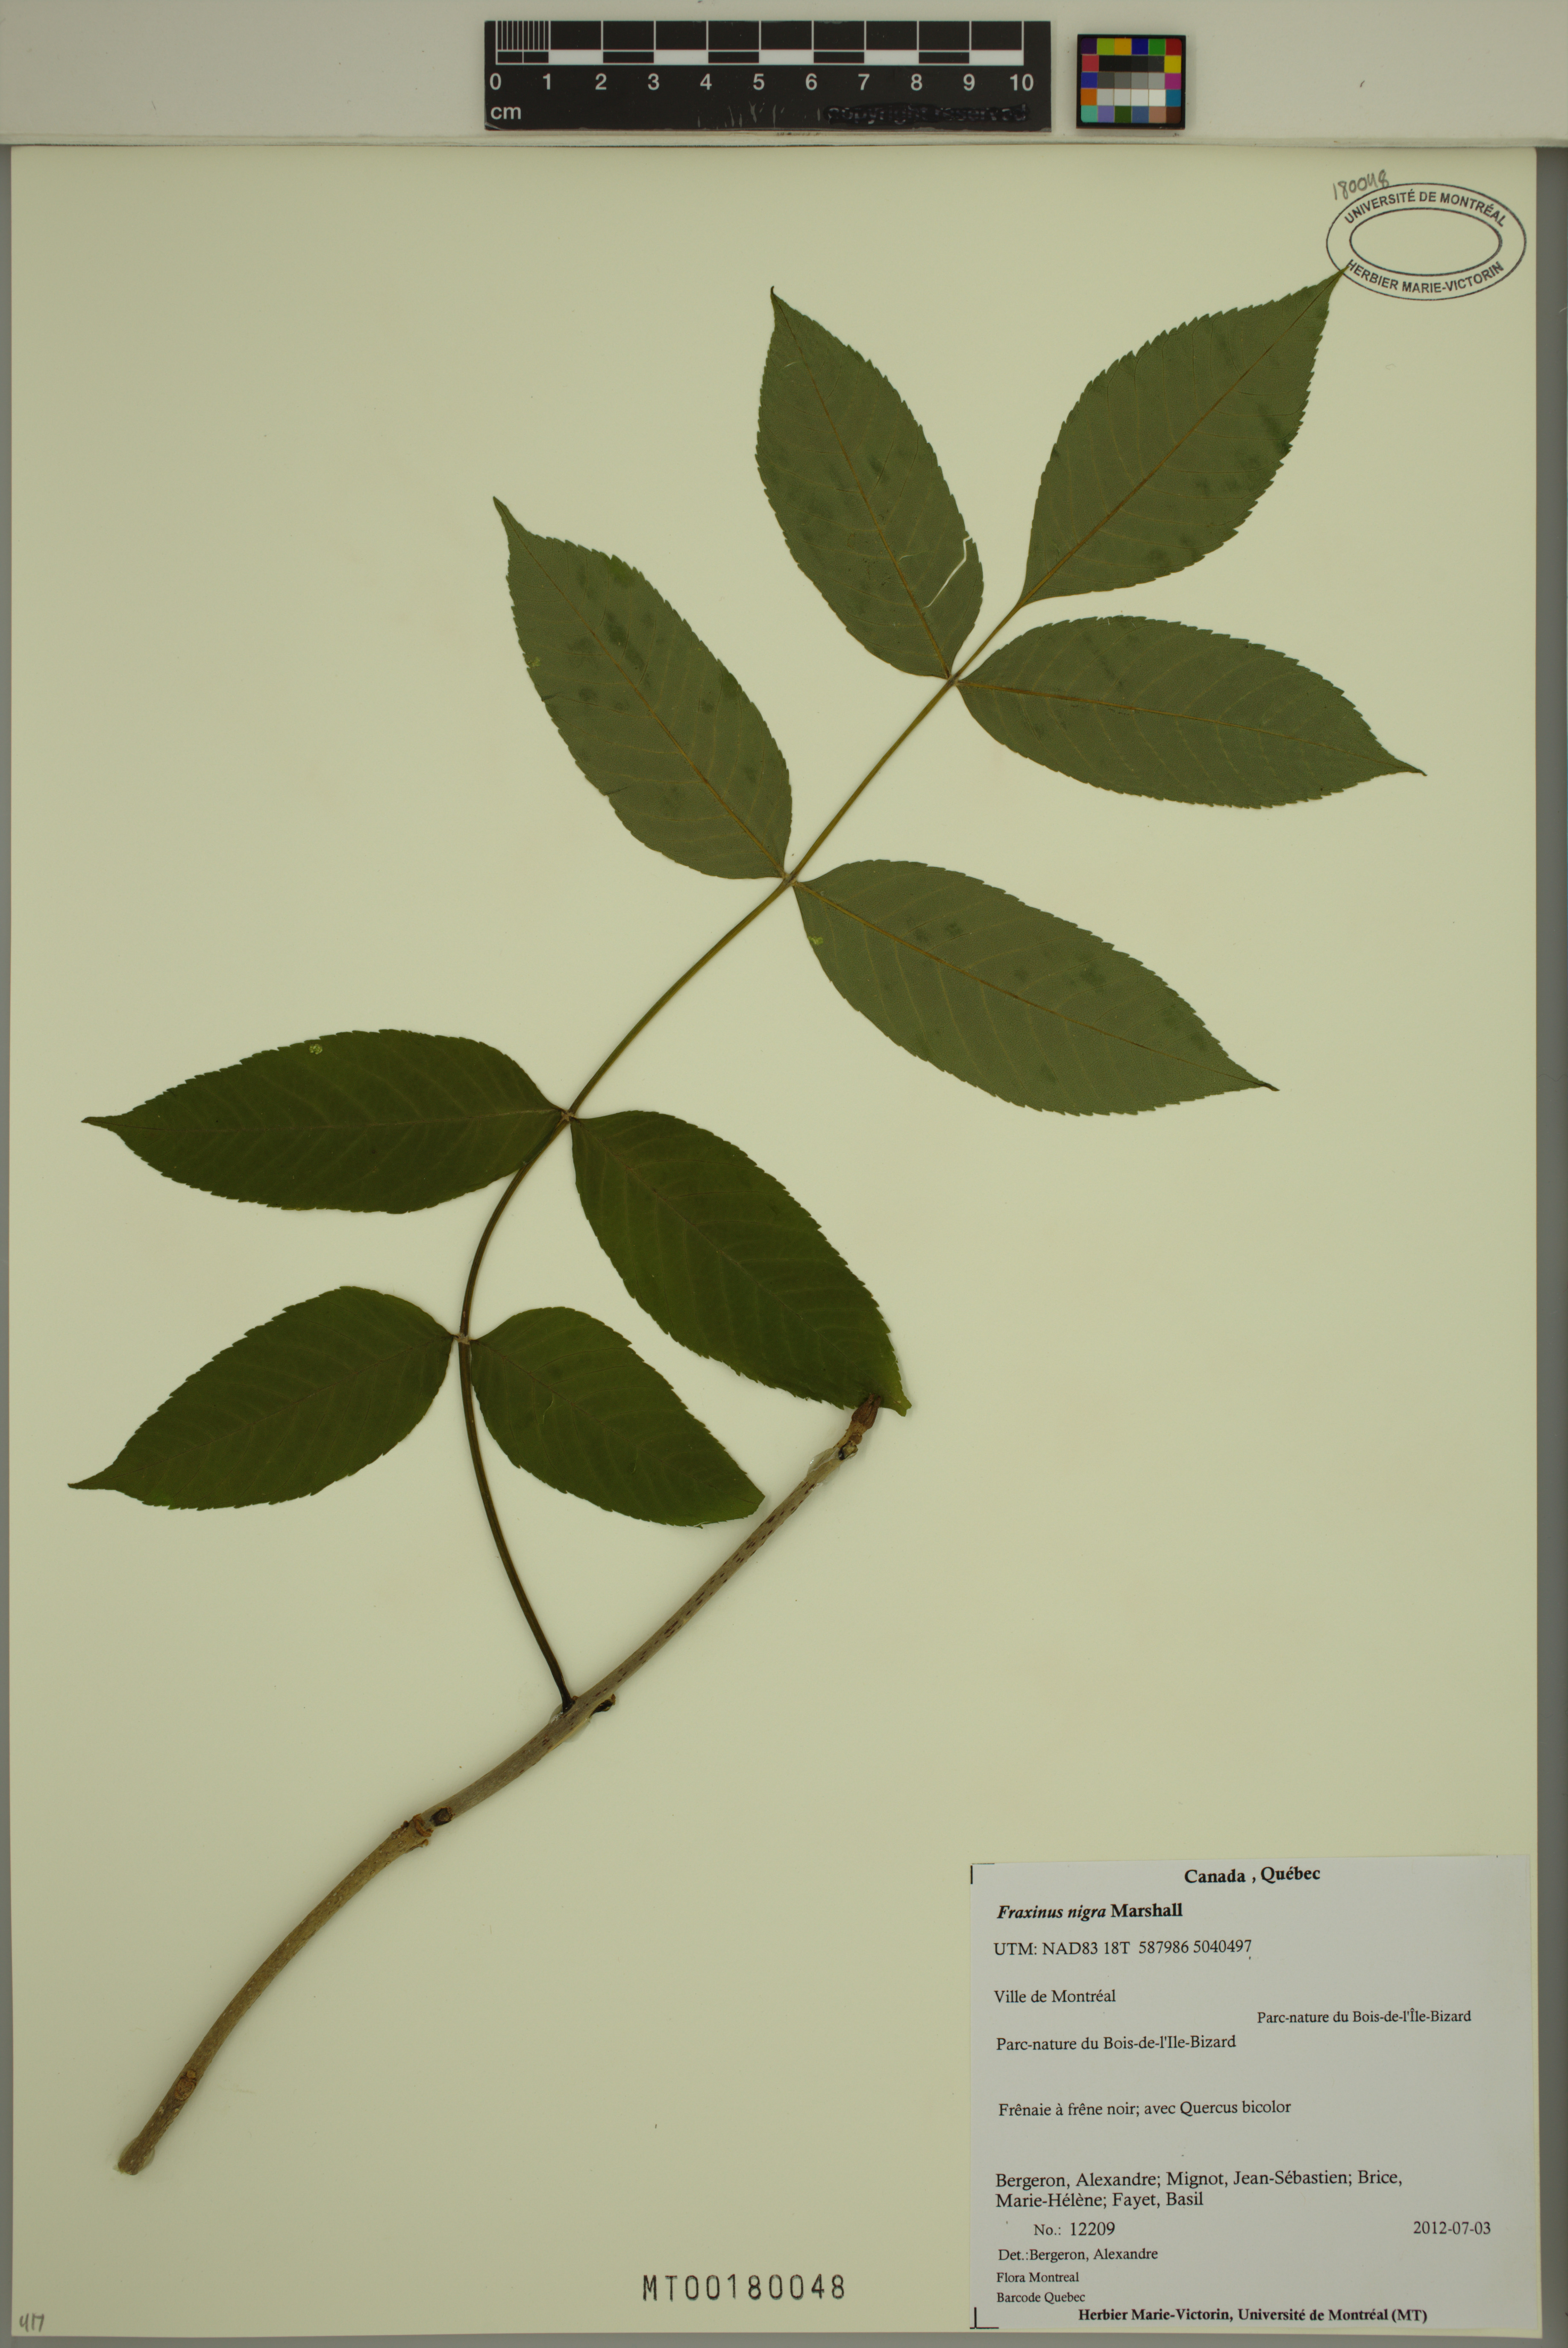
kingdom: Plantae
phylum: Tracheophyta
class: Magnoliopsida
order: Lamiales
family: Oleaceae
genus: Fraxinus
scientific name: Fraxinus nigra
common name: Black ash
